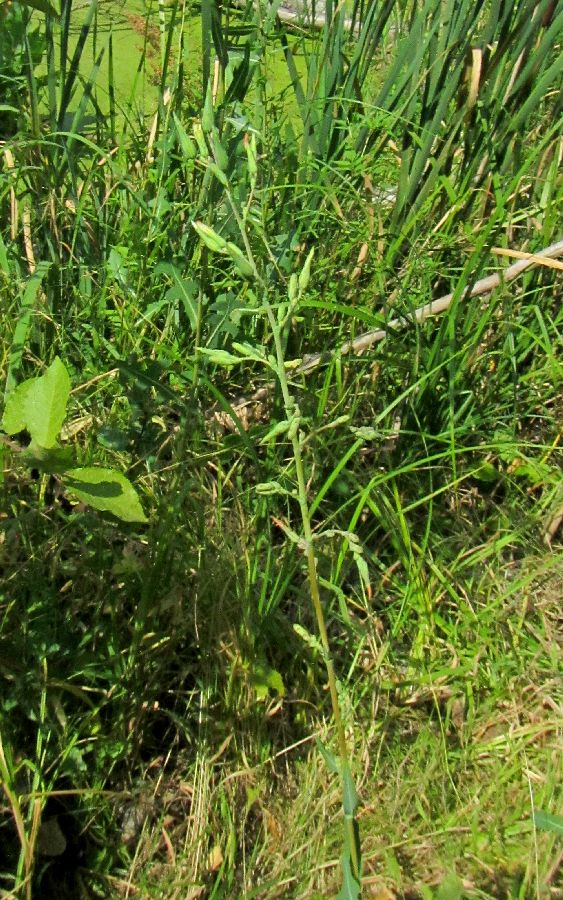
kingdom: Plantae
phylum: Tracheophyta
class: Magnoliopsida
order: Asterales
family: Asteraceae
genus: Lactuca
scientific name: Lactuca
